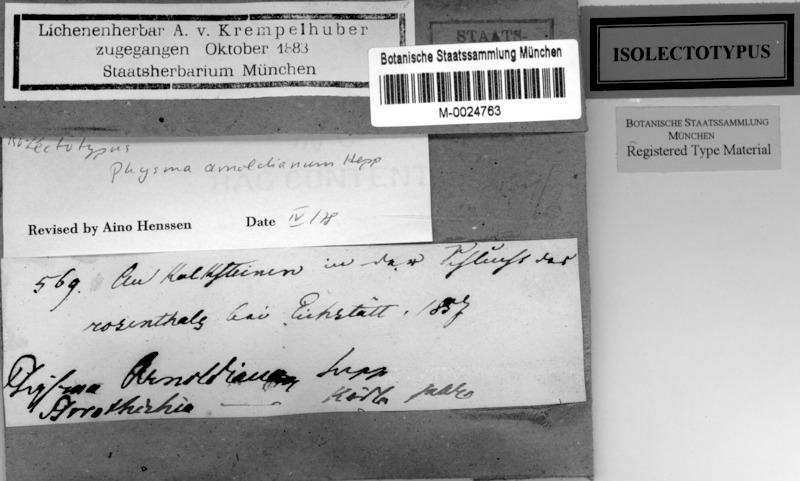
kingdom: Fungi
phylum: Ascomycota
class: Lichinomycetes
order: Lichinales
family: Lichinaceae
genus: Lemmopsis
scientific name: Lemmopsis arnoldiana
